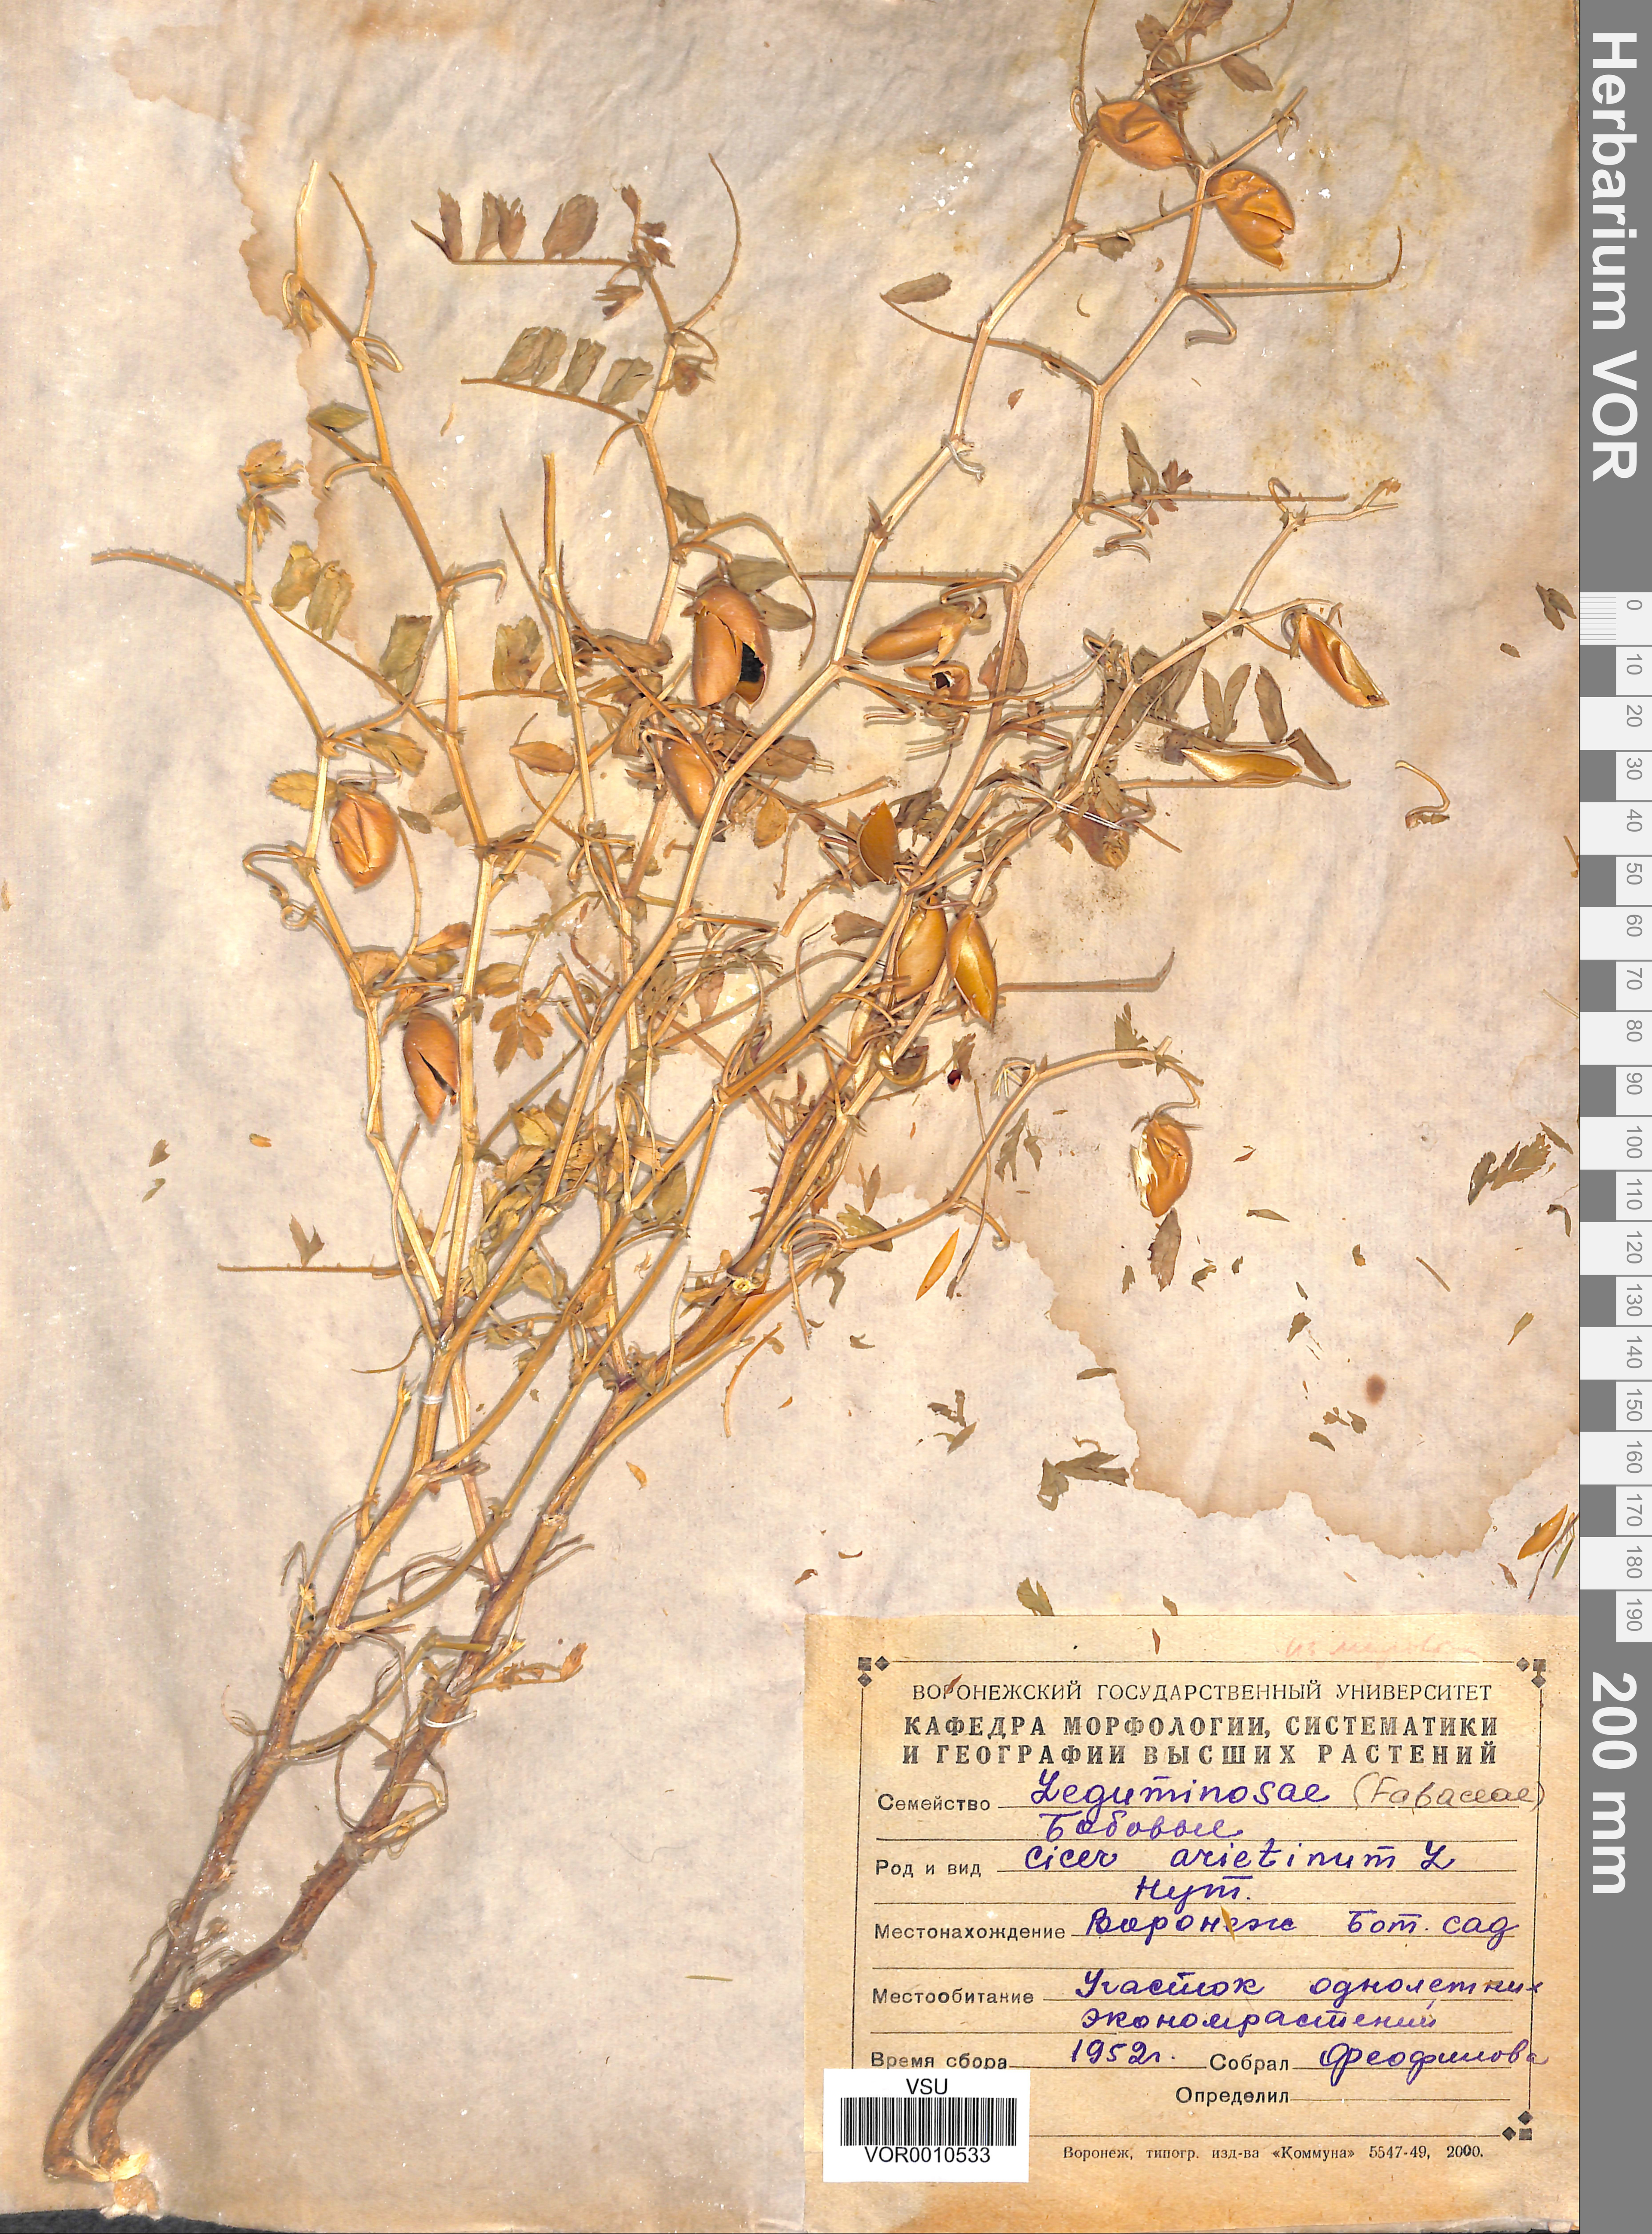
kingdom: Plantae
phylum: Tracheophyta
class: Magnoliopsida
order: Fabales
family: Fabaceae
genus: Cicer
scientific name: Cicer arietinum
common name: Chick pea
